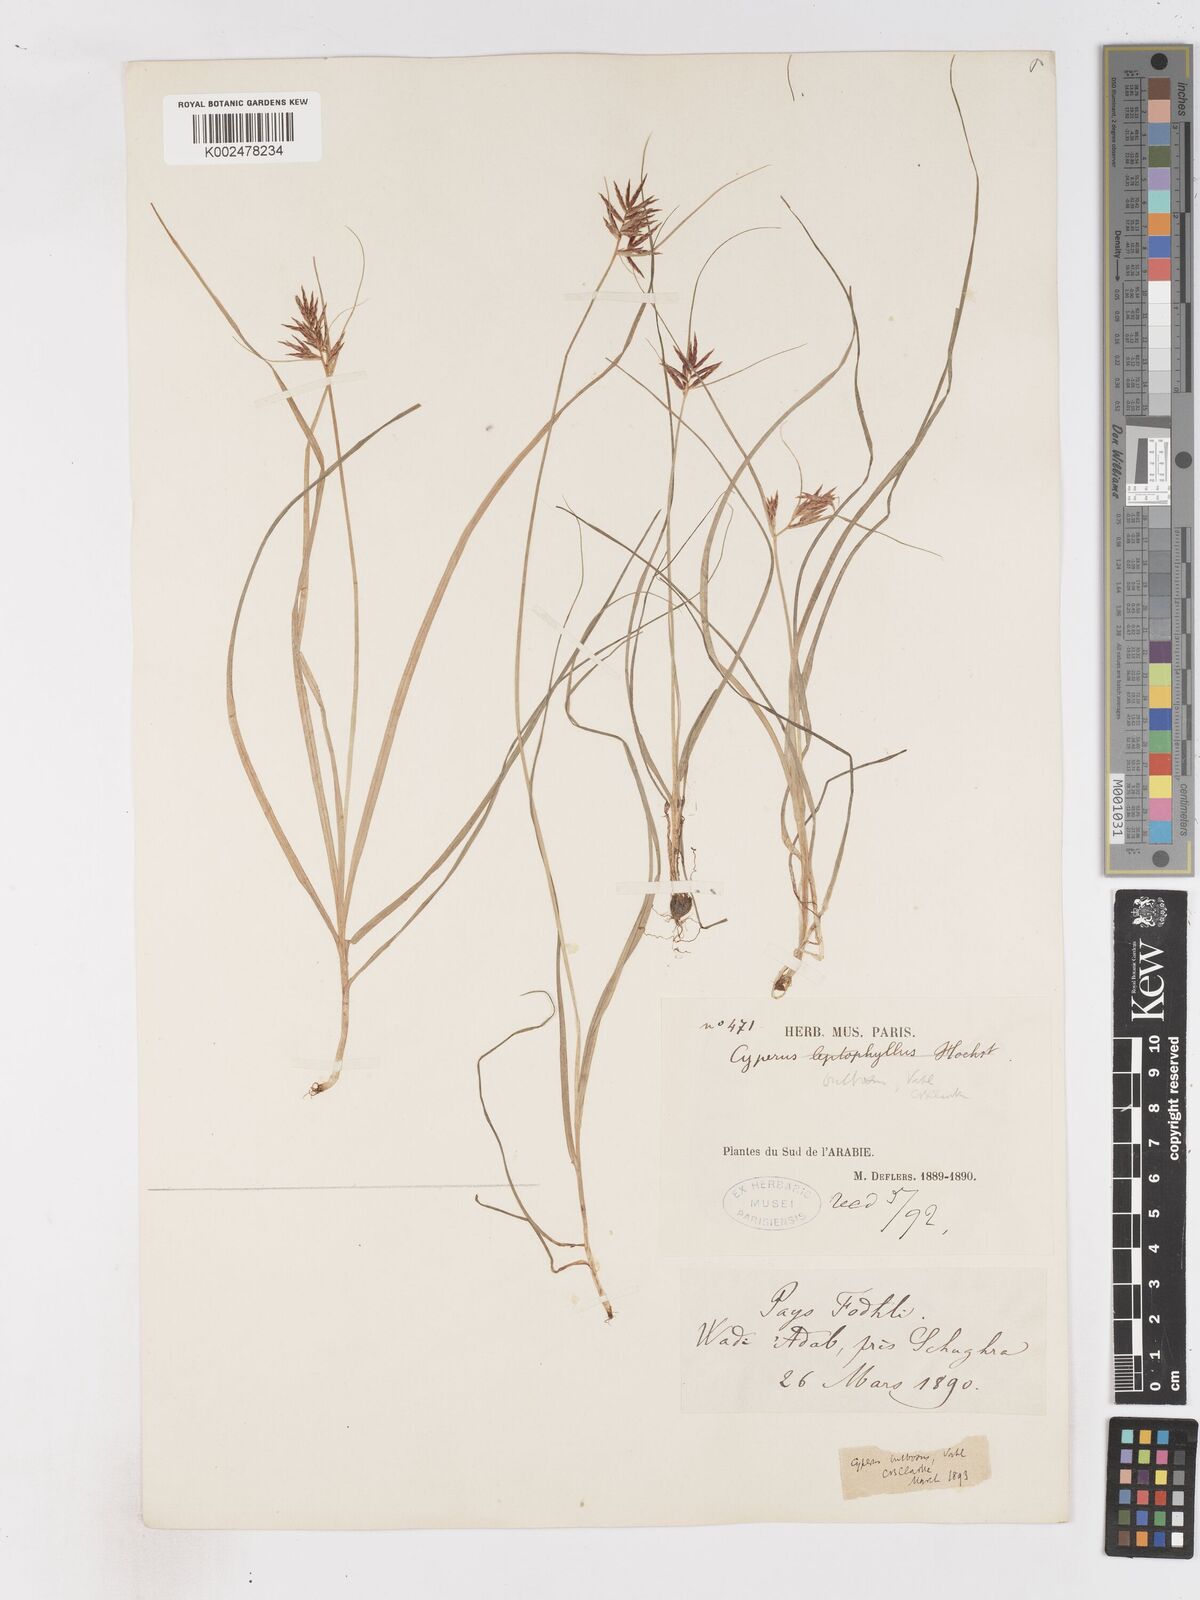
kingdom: Plantae
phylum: Tracheophyta
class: Liliopsida
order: Poales
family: Cyperaceae
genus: Cyperus
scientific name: Cyperus bulbosus
